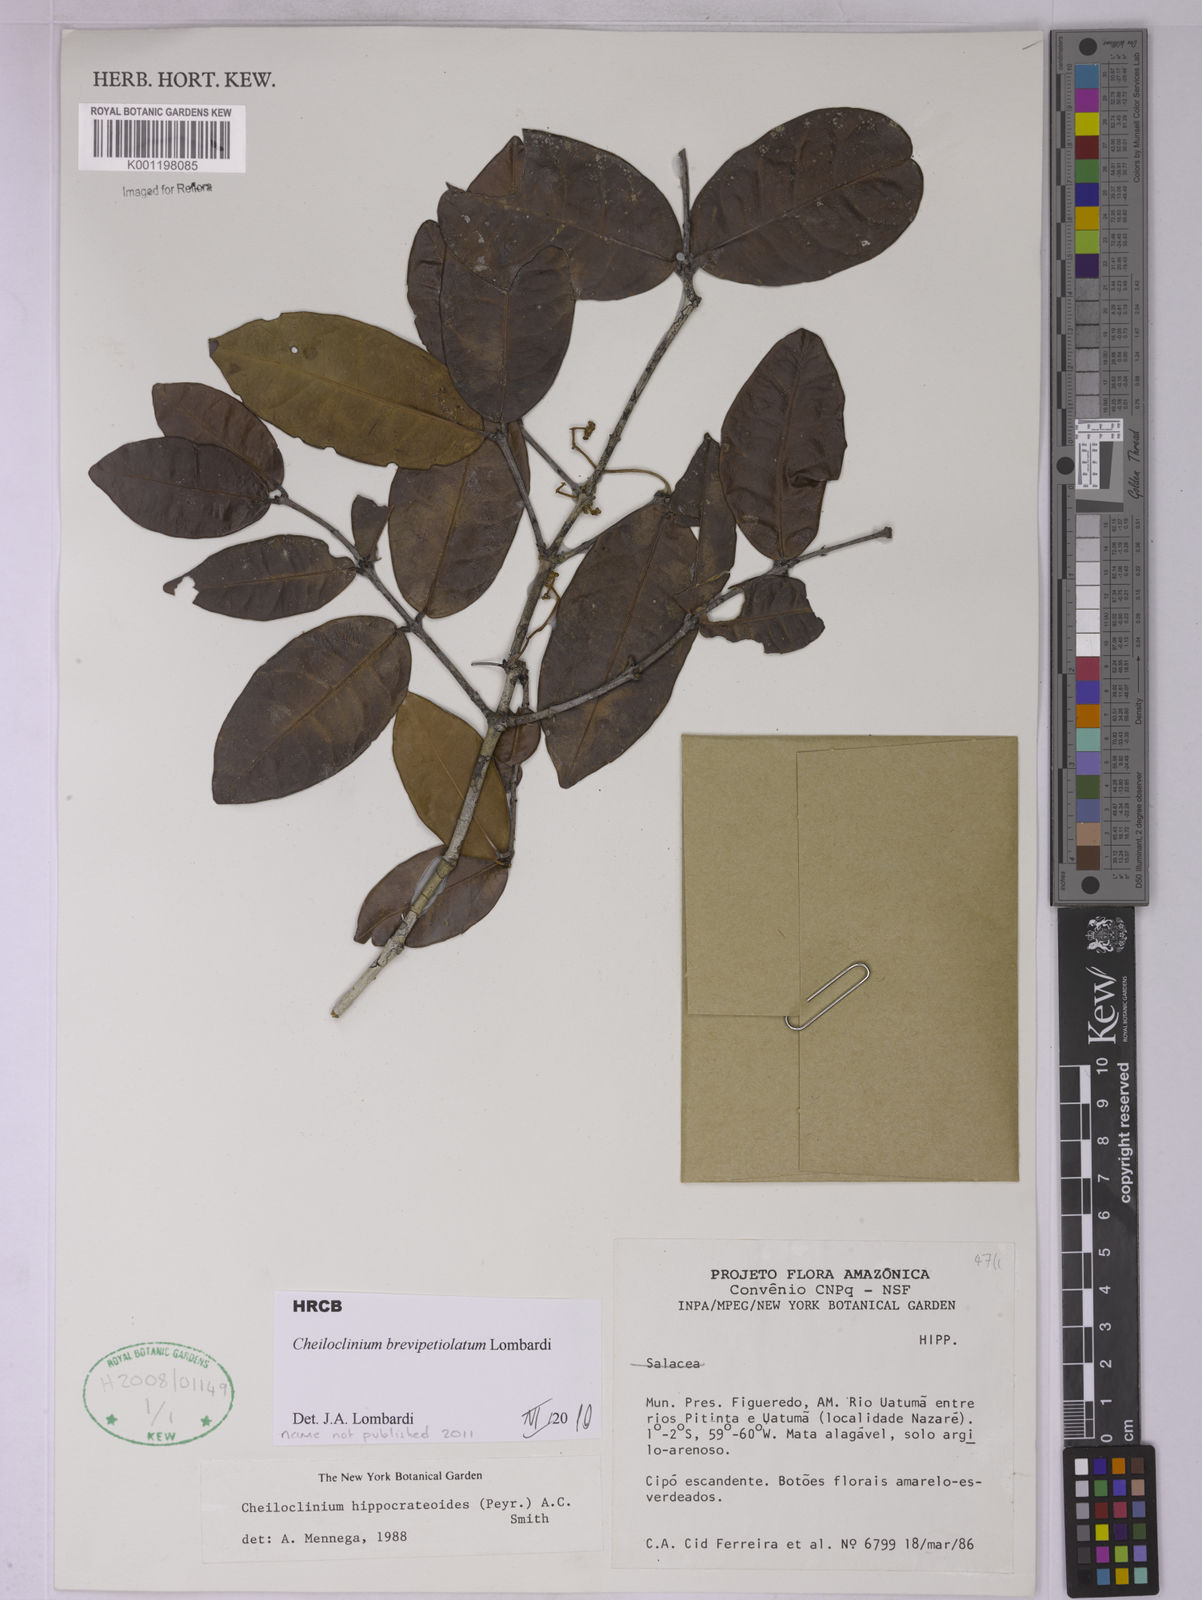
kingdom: Plantae
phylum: Tracheophyta
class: Magnoliopsida
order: Celastrales
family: Celastraceae
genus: Cheiloclinium
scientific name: Cheiloclinium hippocrateoides
